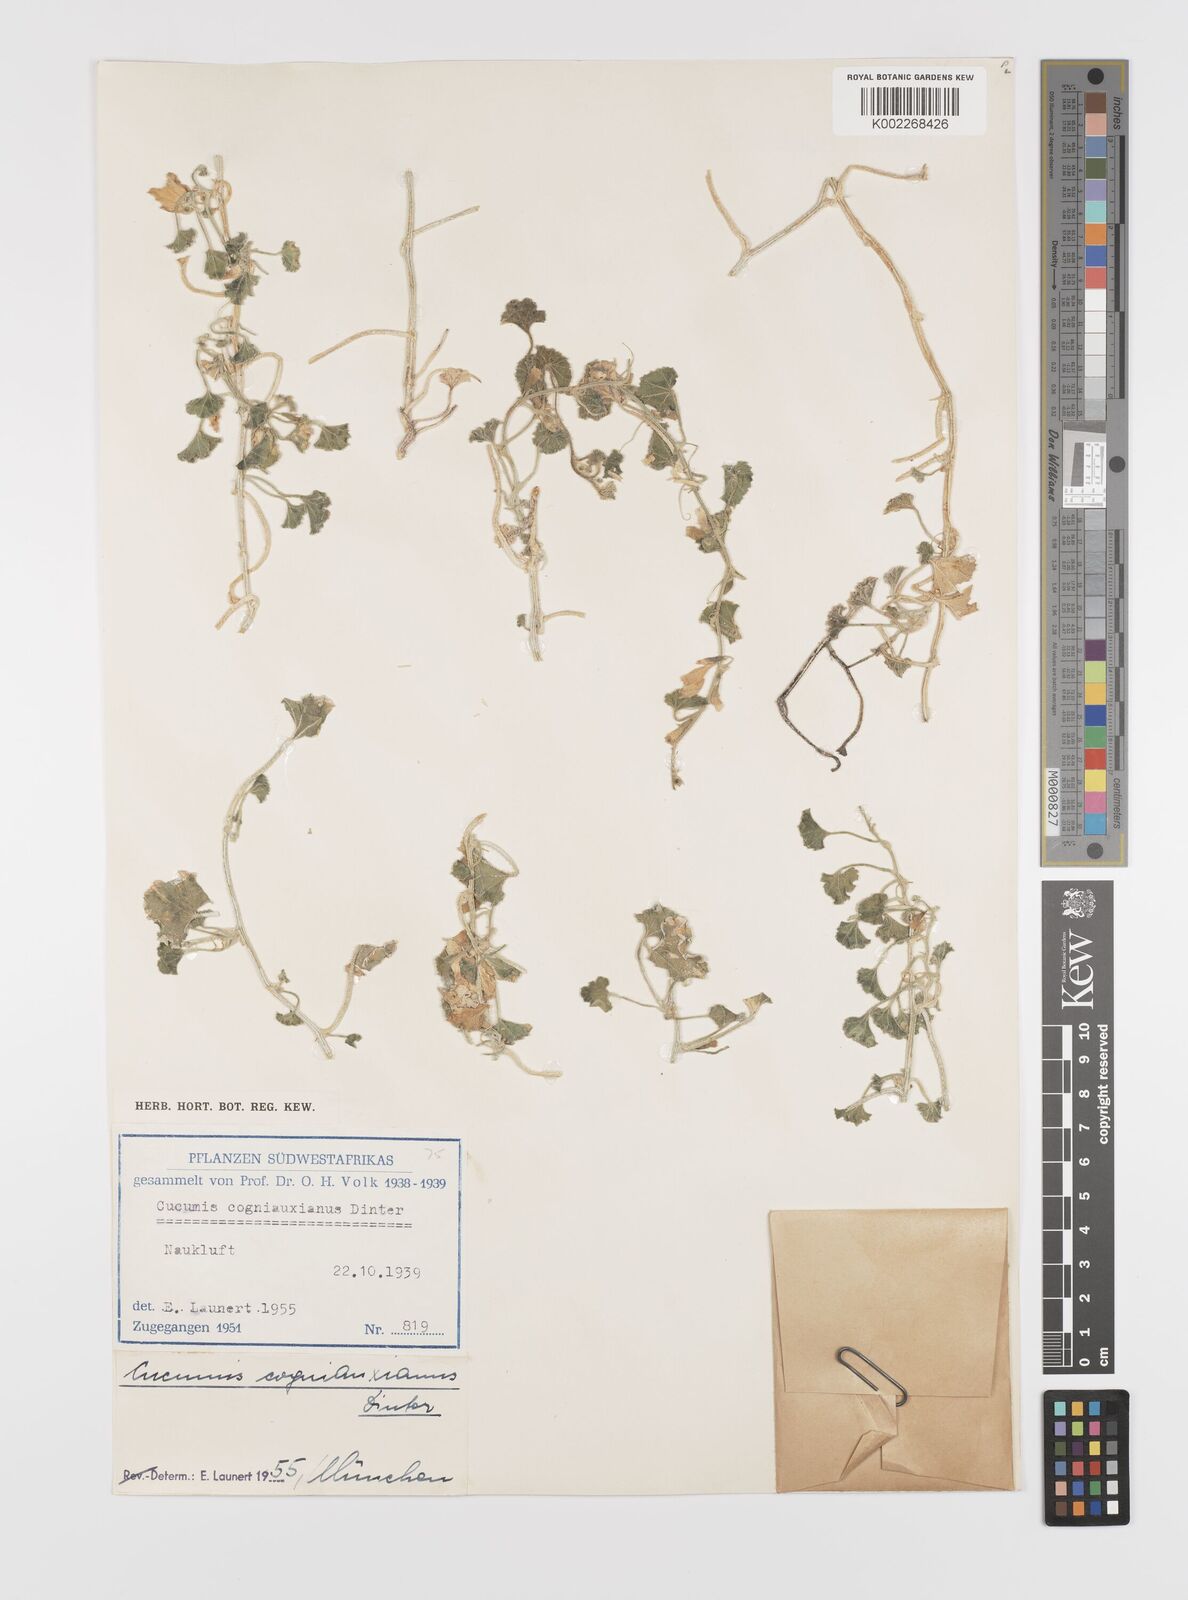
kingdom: Plantae
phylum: Tracheophyta
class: Magnoliopsida
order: Cucurbitales
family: Cucurbitaceae
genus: Cucumis
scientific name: Cucumis sagittatus
